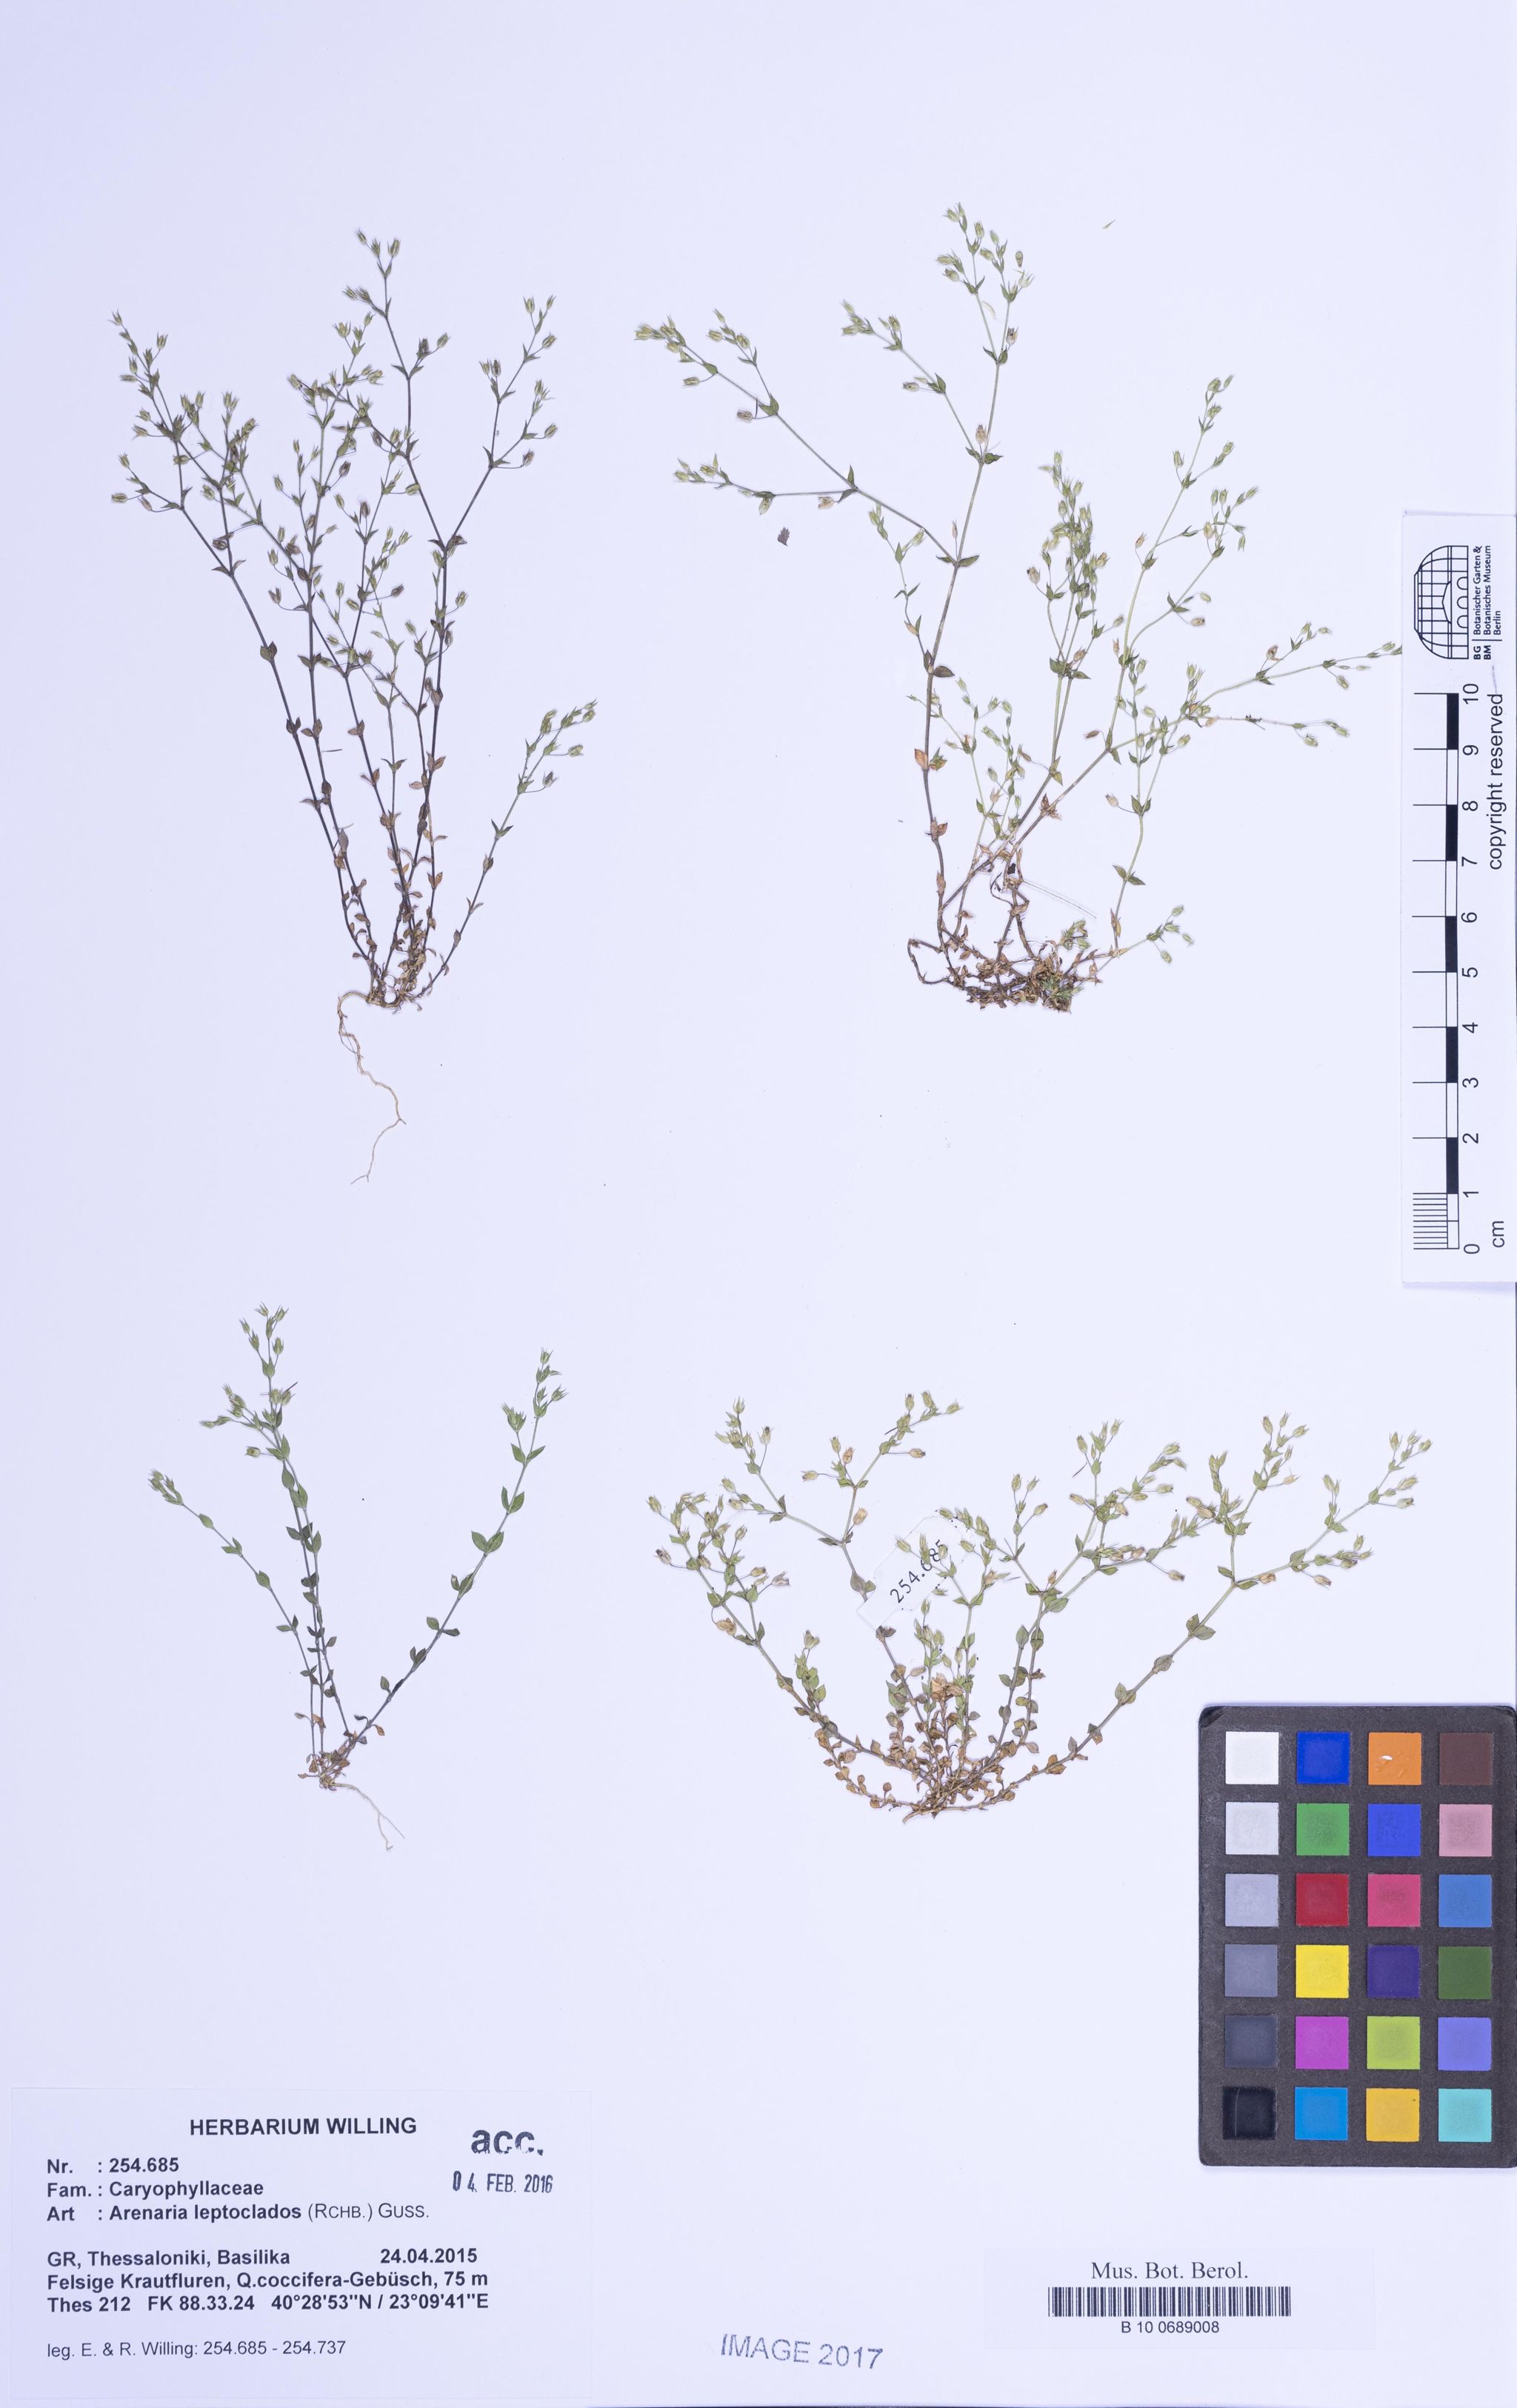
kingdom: Plantae
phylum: Tracheophyta
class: Magnoliopsida
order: Caryophyllales
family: Caryophyllaceae
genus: Arenaria
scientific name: Arenaria leptoclados
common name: Thyme-leaved sandwort
